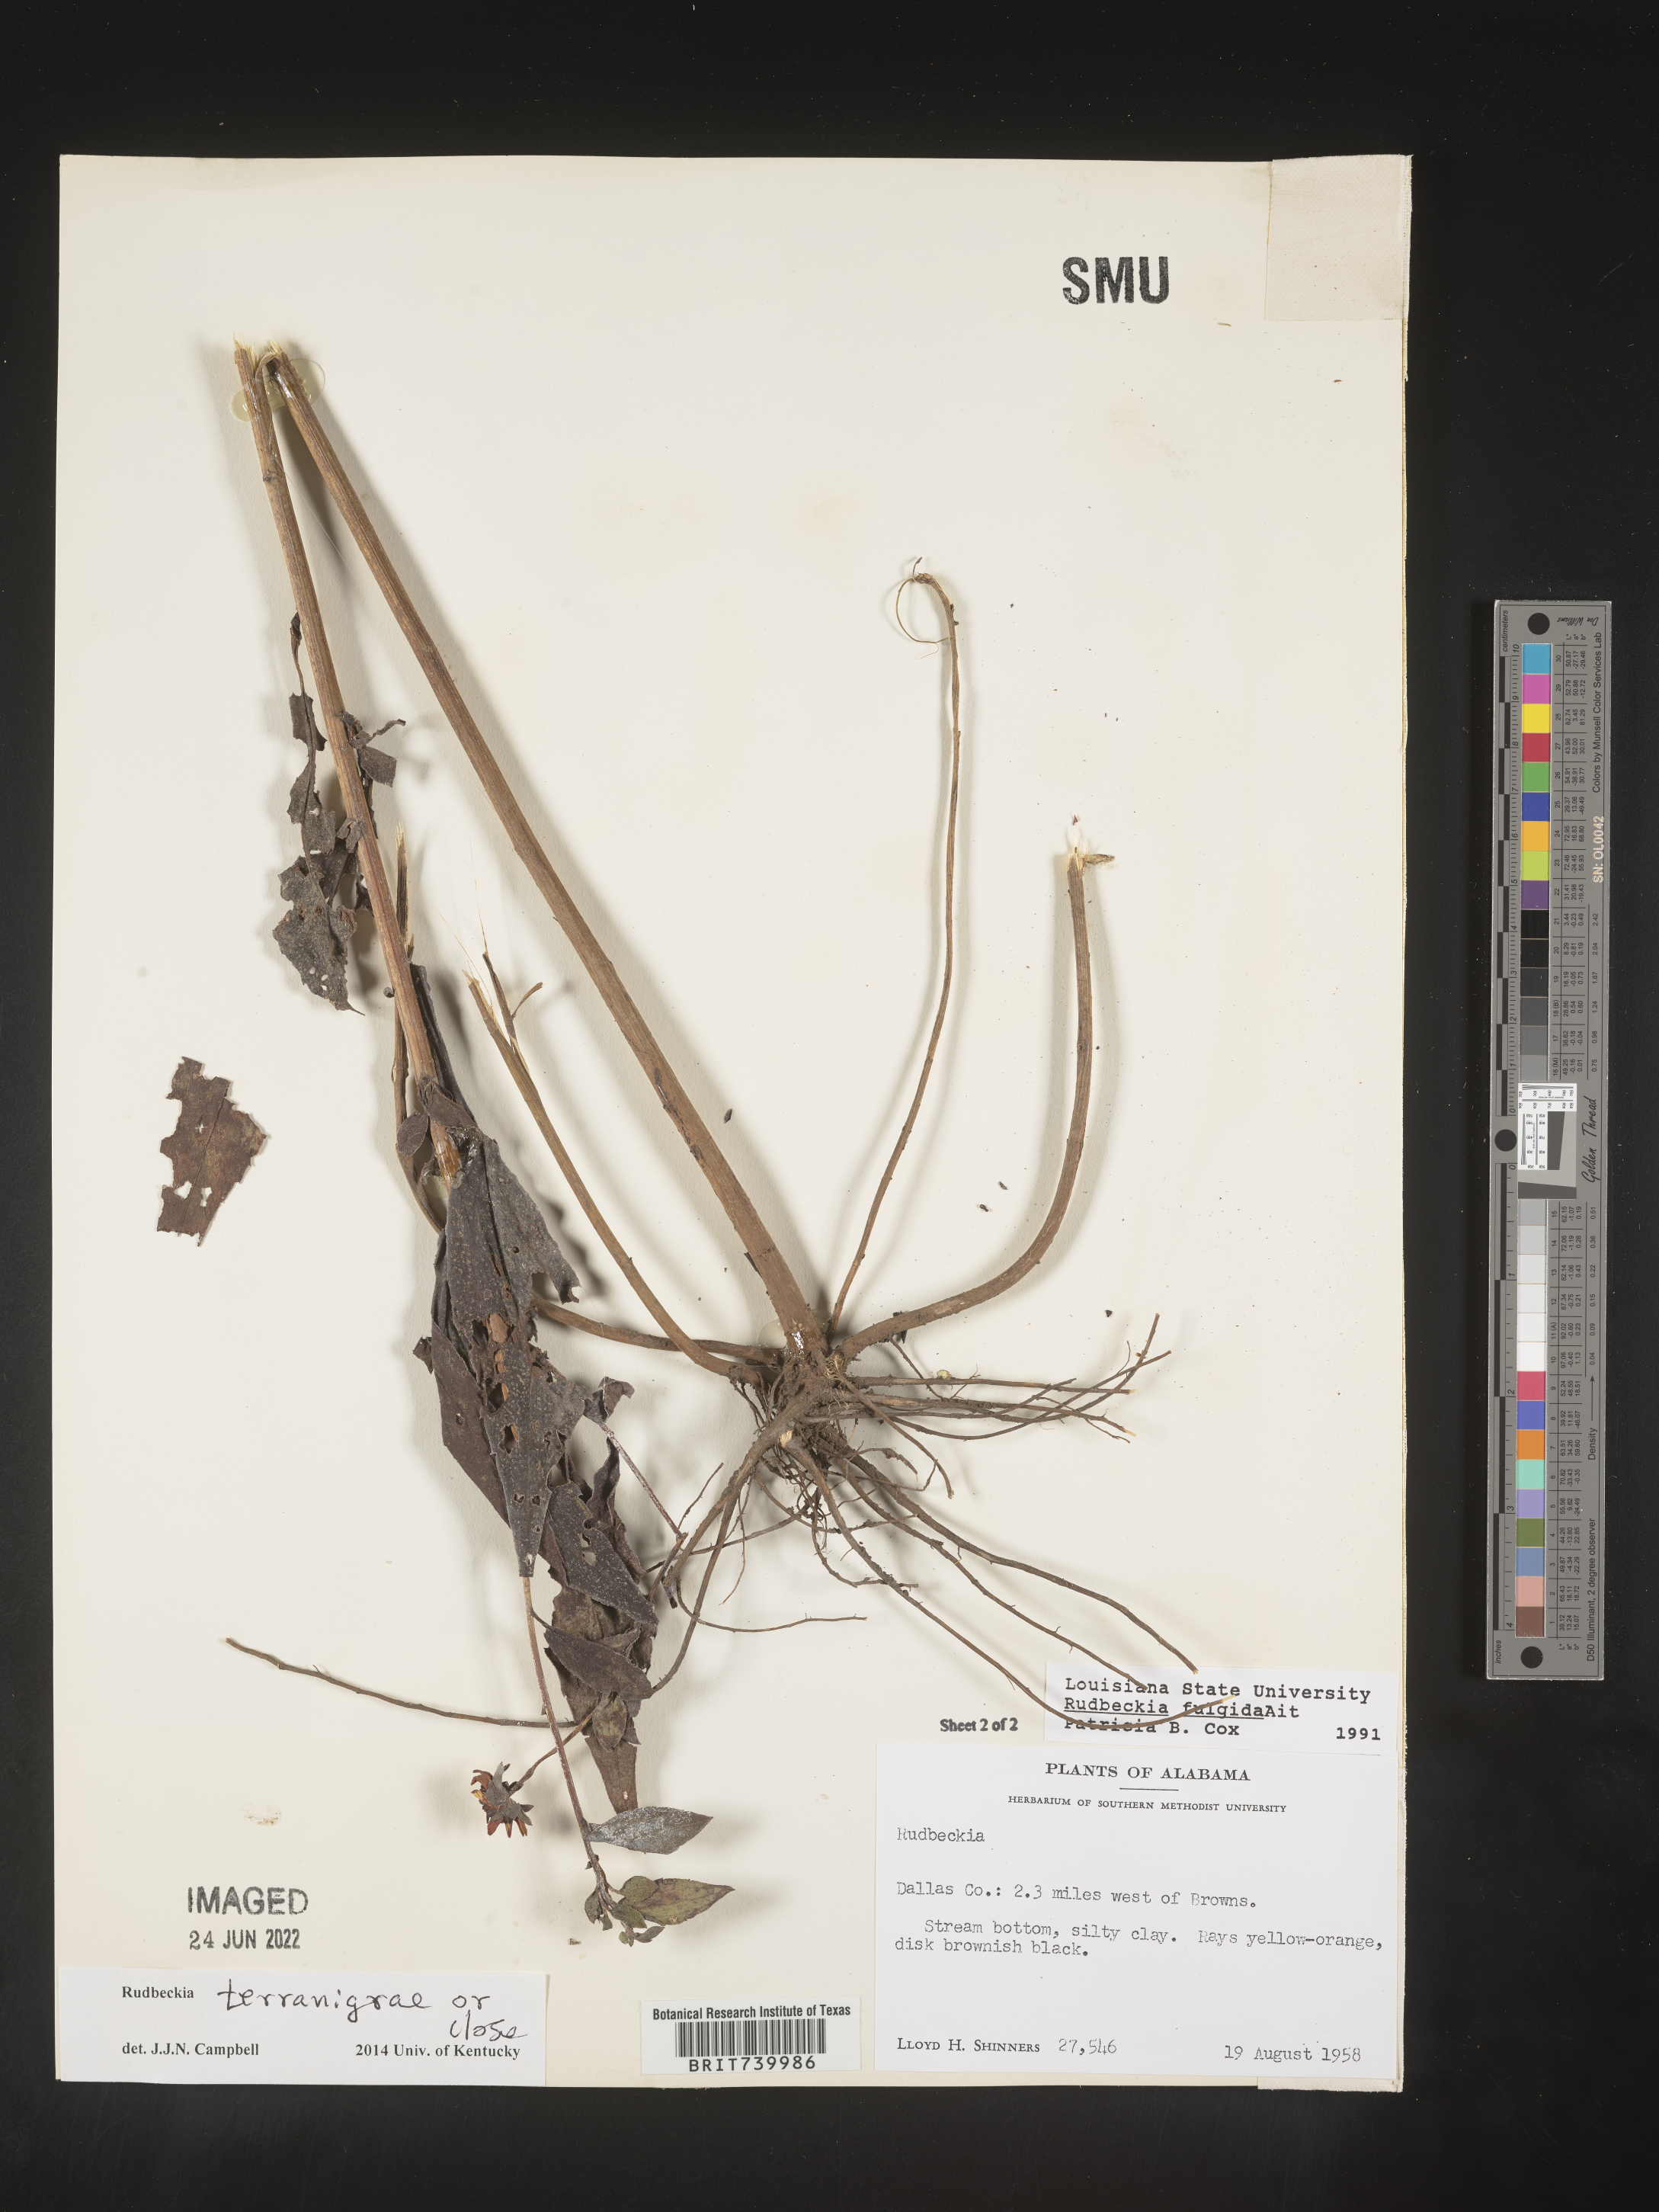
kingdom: Plantae
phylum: Tracheophyta
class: Magnoliopsida
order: Asterales
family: Asteraceae
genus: Rudbeckia
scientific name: Rudbeckia fulgida
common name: Perennial coneflower
